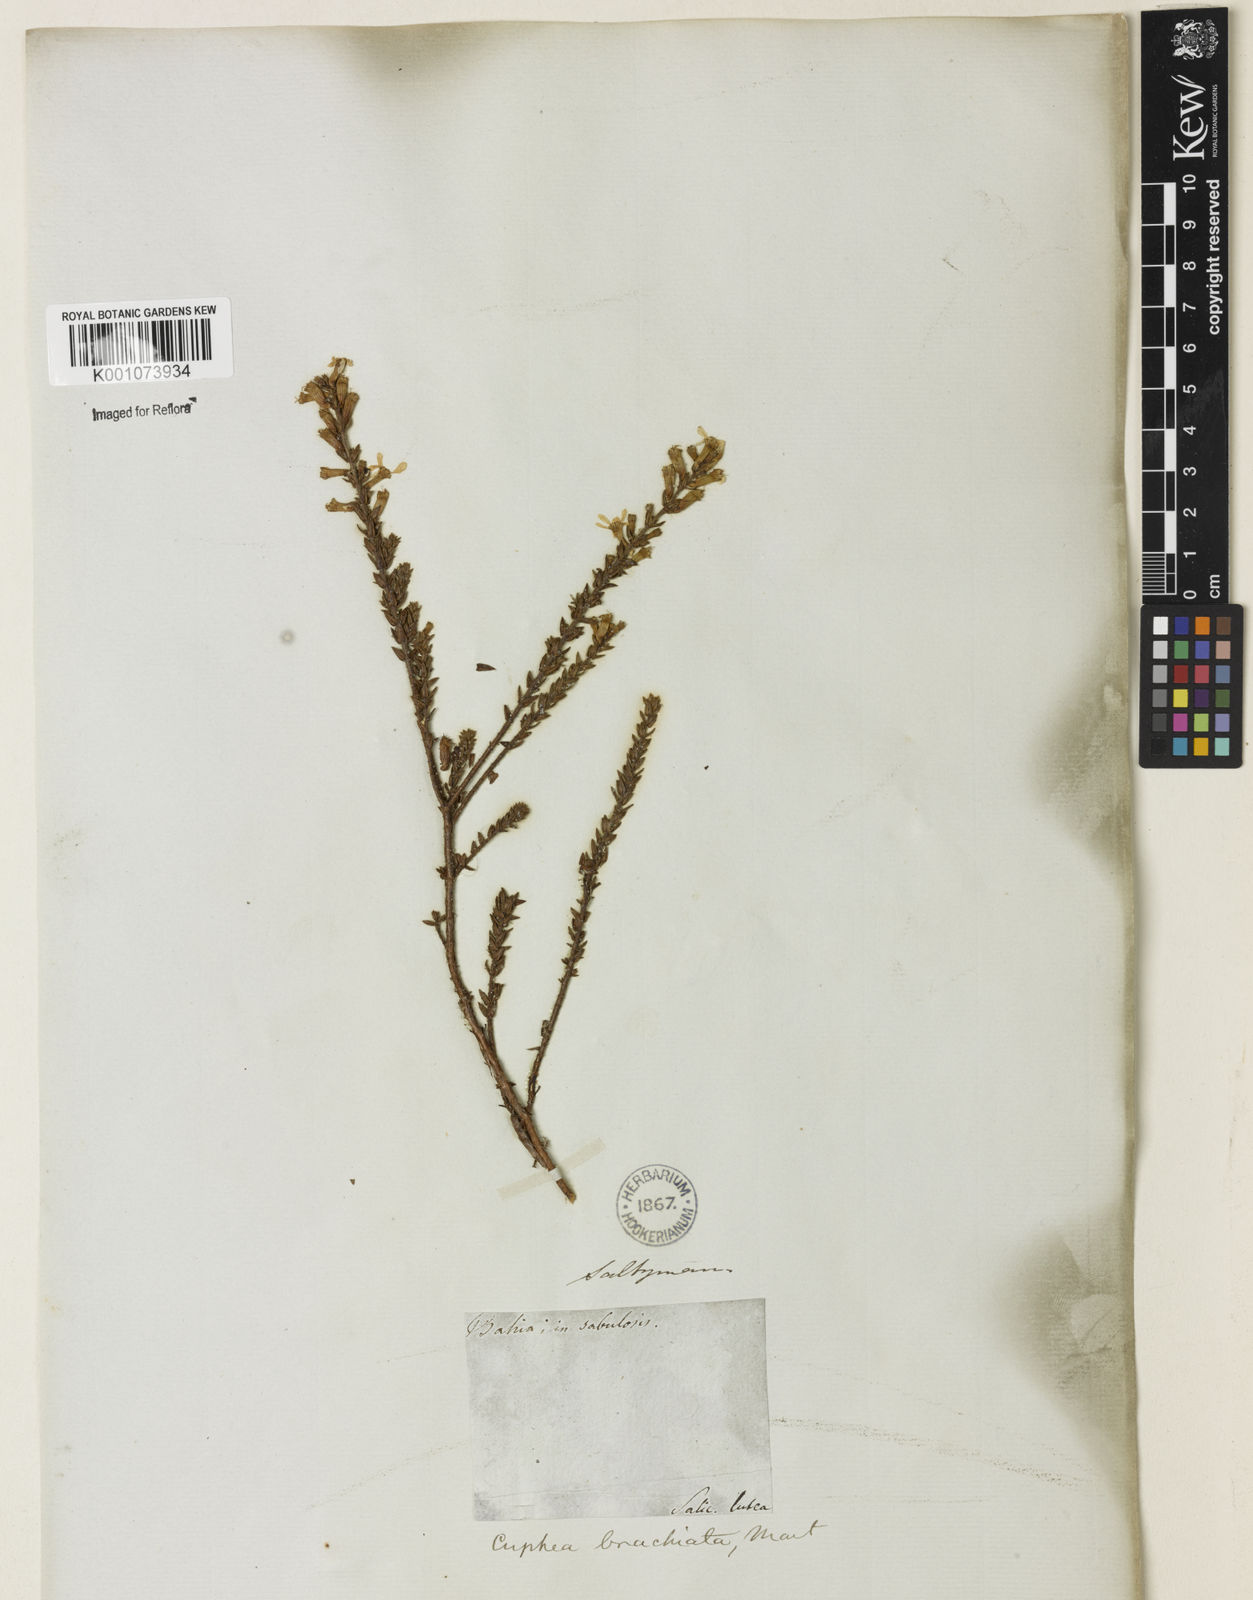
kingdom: Plantae
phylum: Tracheophyta
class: Magnoliopsida
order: Myrtales
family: Lythraceae
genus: Cuphea
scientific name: Cuphea brachiata
